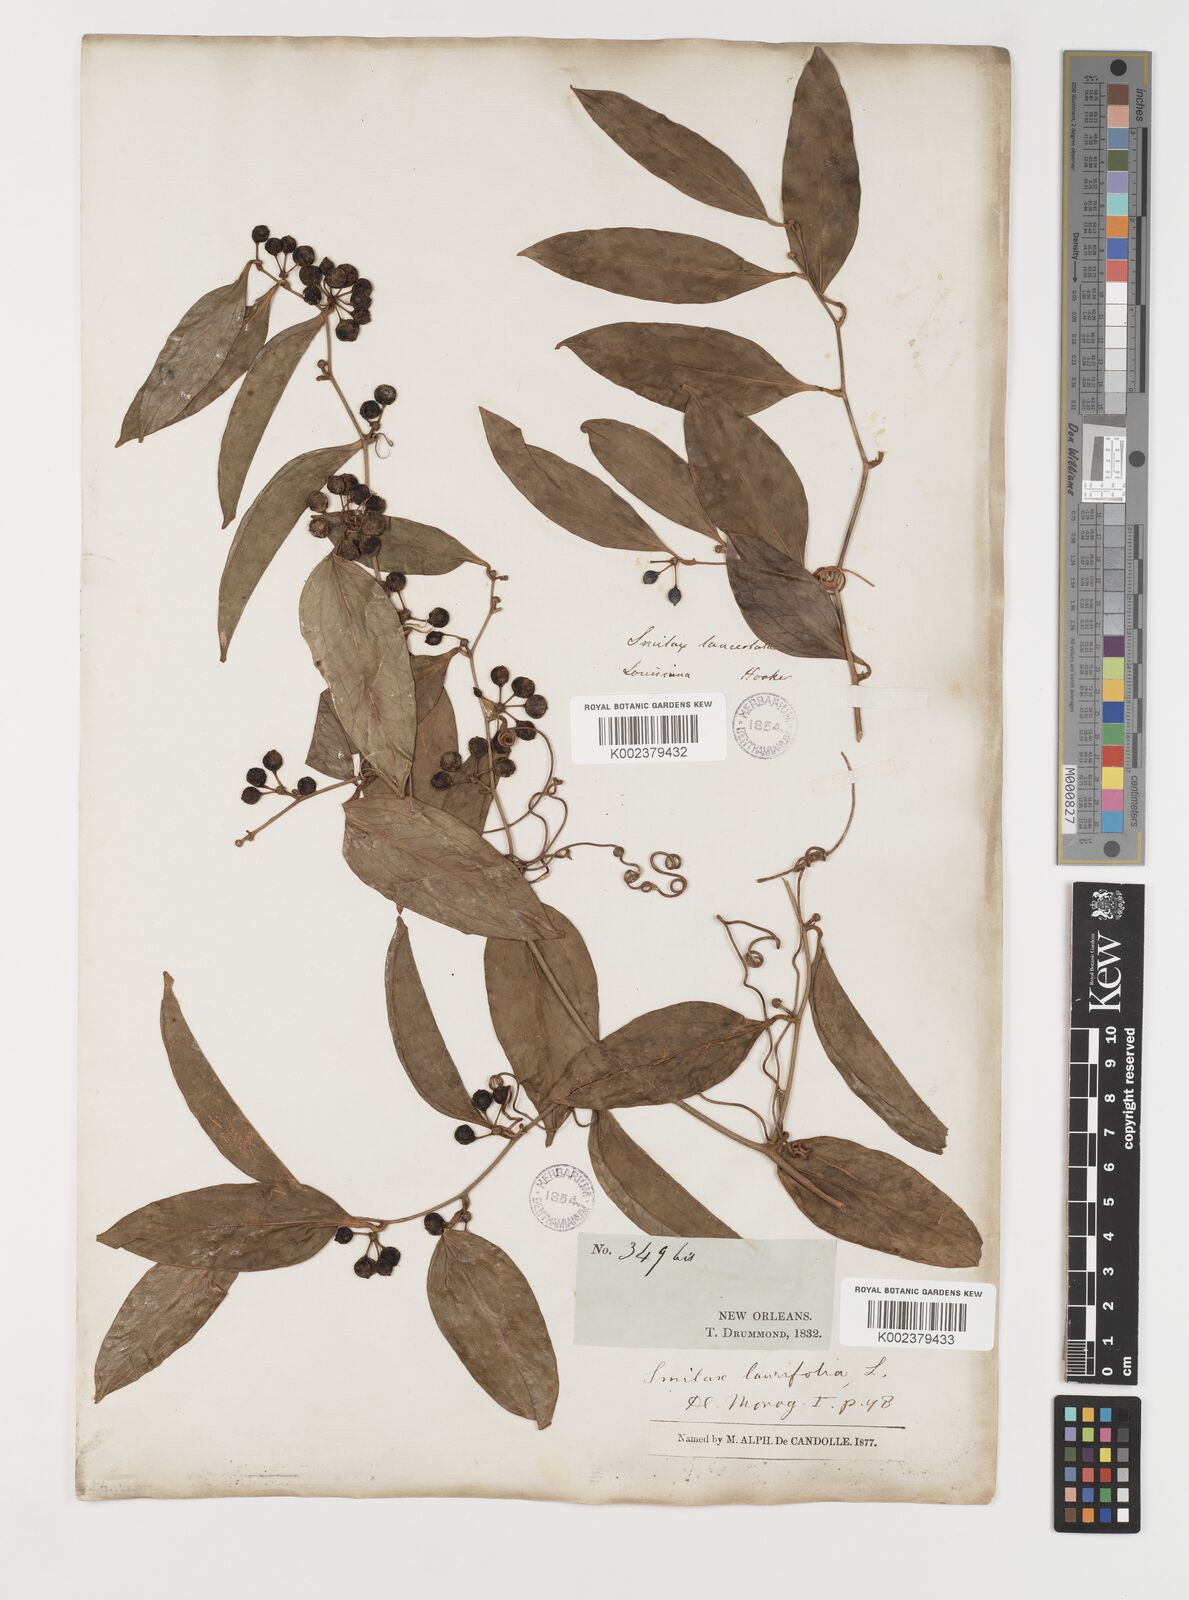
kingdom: Plantae
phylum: Tracheophyta
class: Liliopsida
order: Liliales
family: Smilacaceae
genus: Smilax
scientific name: Smilax laurifolia
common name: Bamboovine
